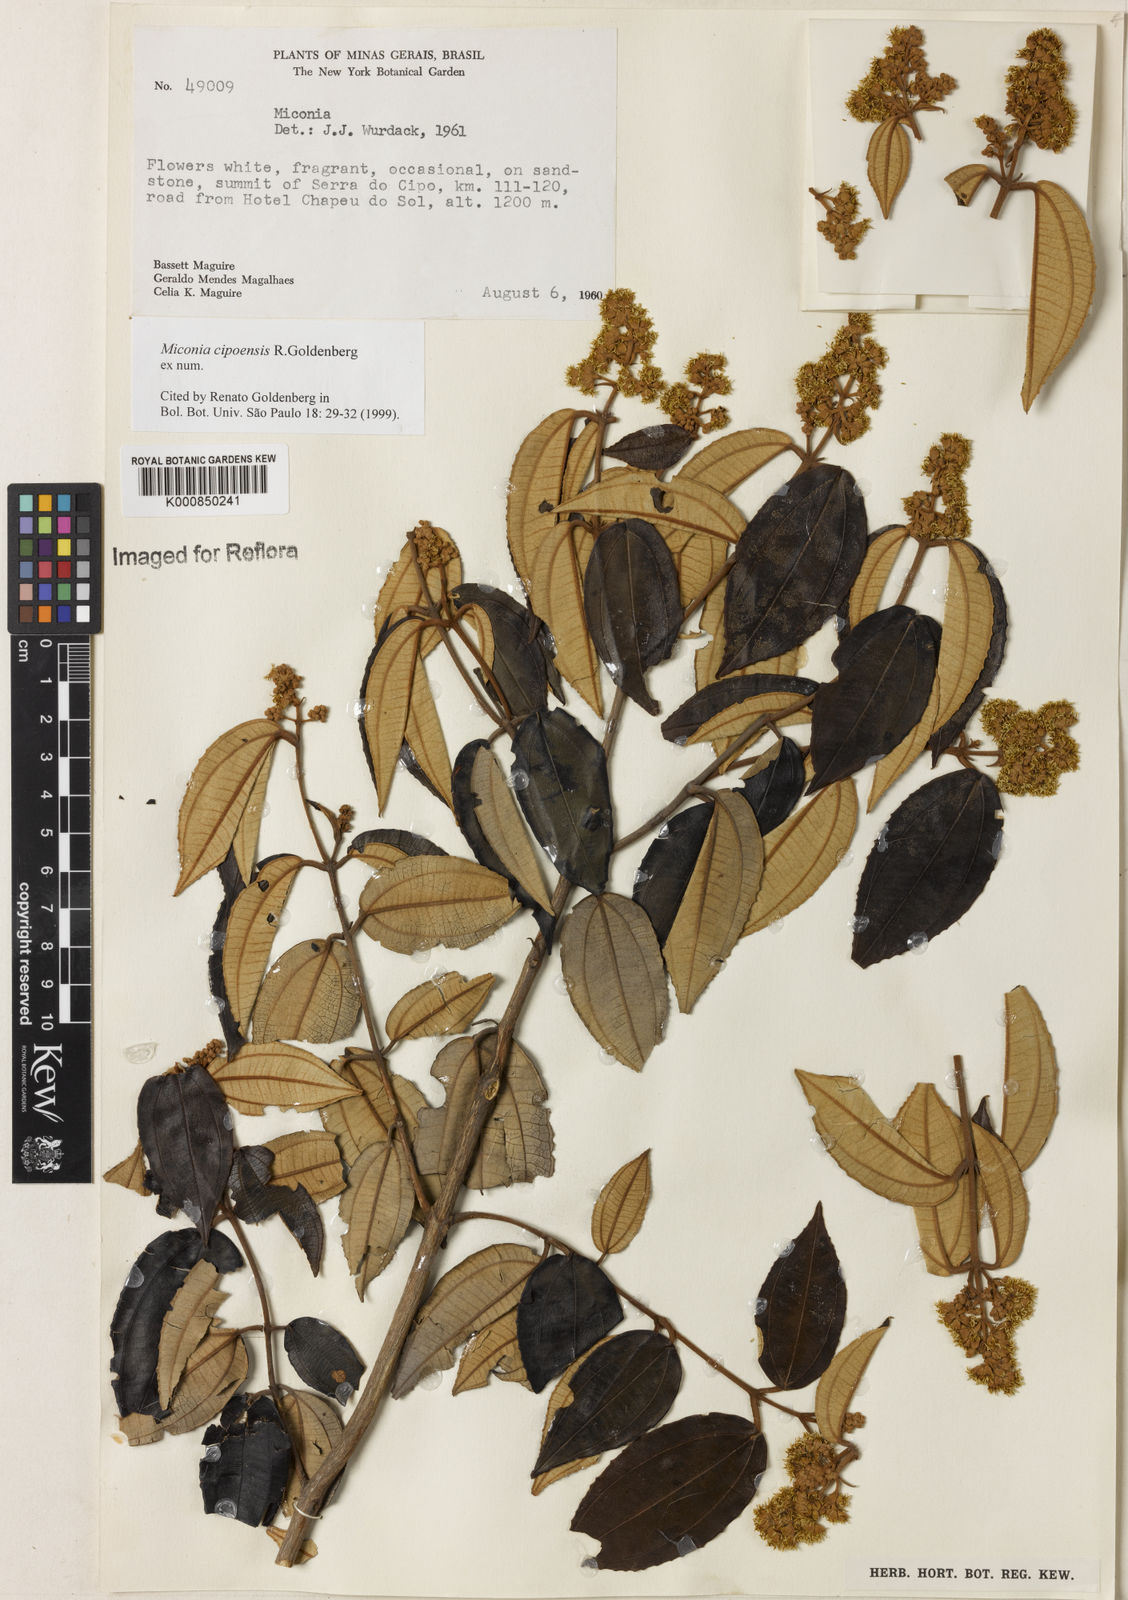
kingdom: Plantae
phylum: Tracheophyta
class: Magnoliopsida
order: Myrtales
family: Melastomataceae
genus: Miconia
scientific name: Miconia cipoensis
